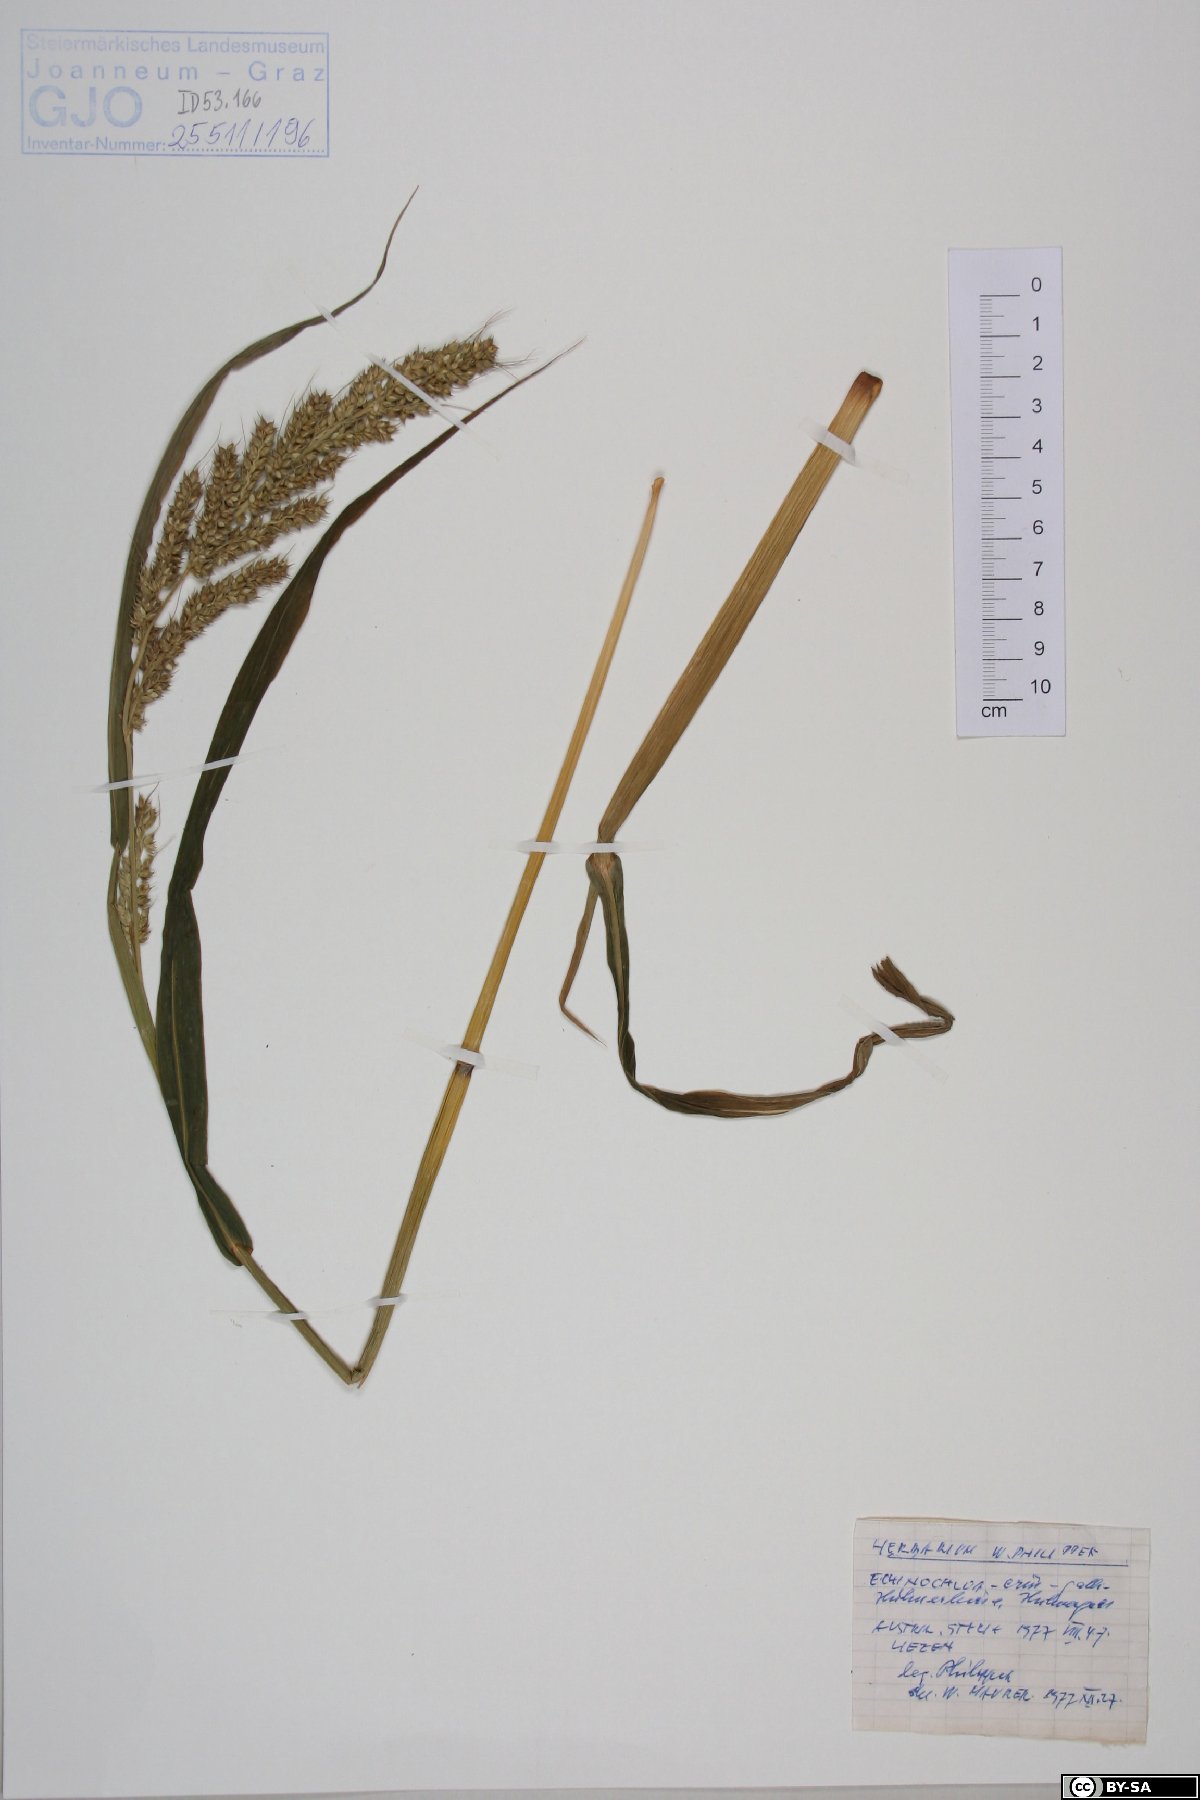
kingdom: Plantae
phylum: Tracheophyta
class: Liliopsida
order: Poales
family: Poaceae
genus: Echinochloa
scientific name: Echinochloa crus-galli
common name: Cockspur
